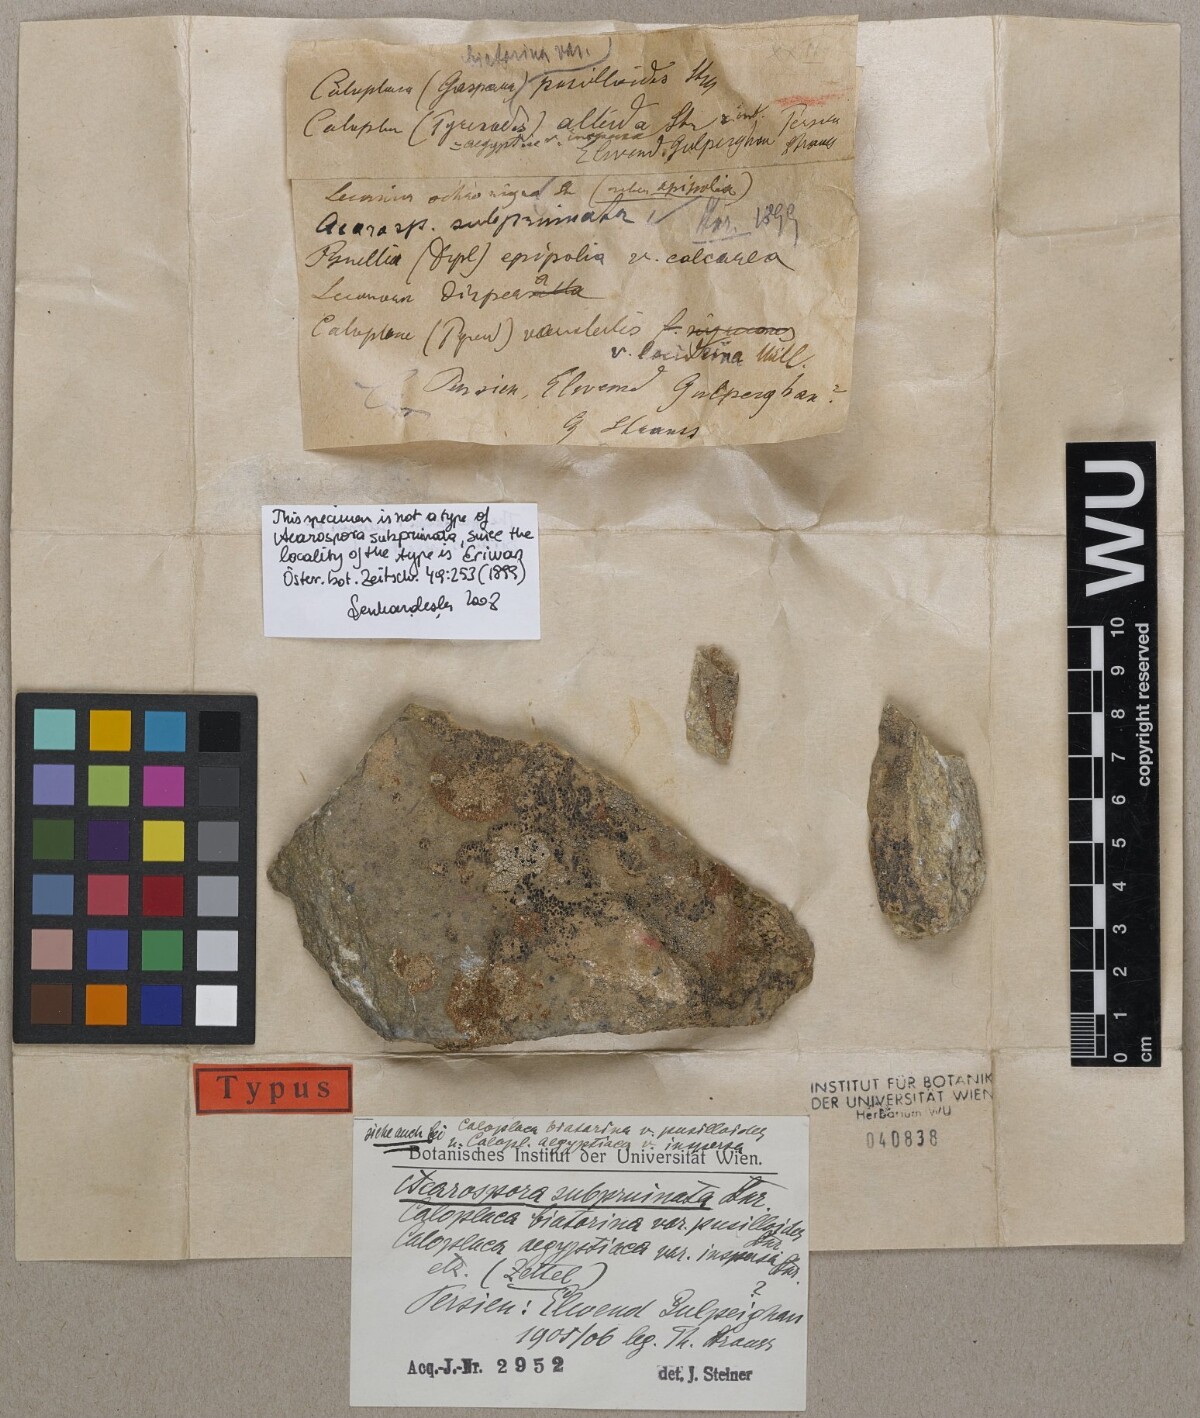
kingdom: Fungi
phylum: Ascomycota
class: Lecanoromycetes
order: Acarosporales
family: Acarosporaceae
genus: Acarospora
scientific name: Acarospora subpruinata
